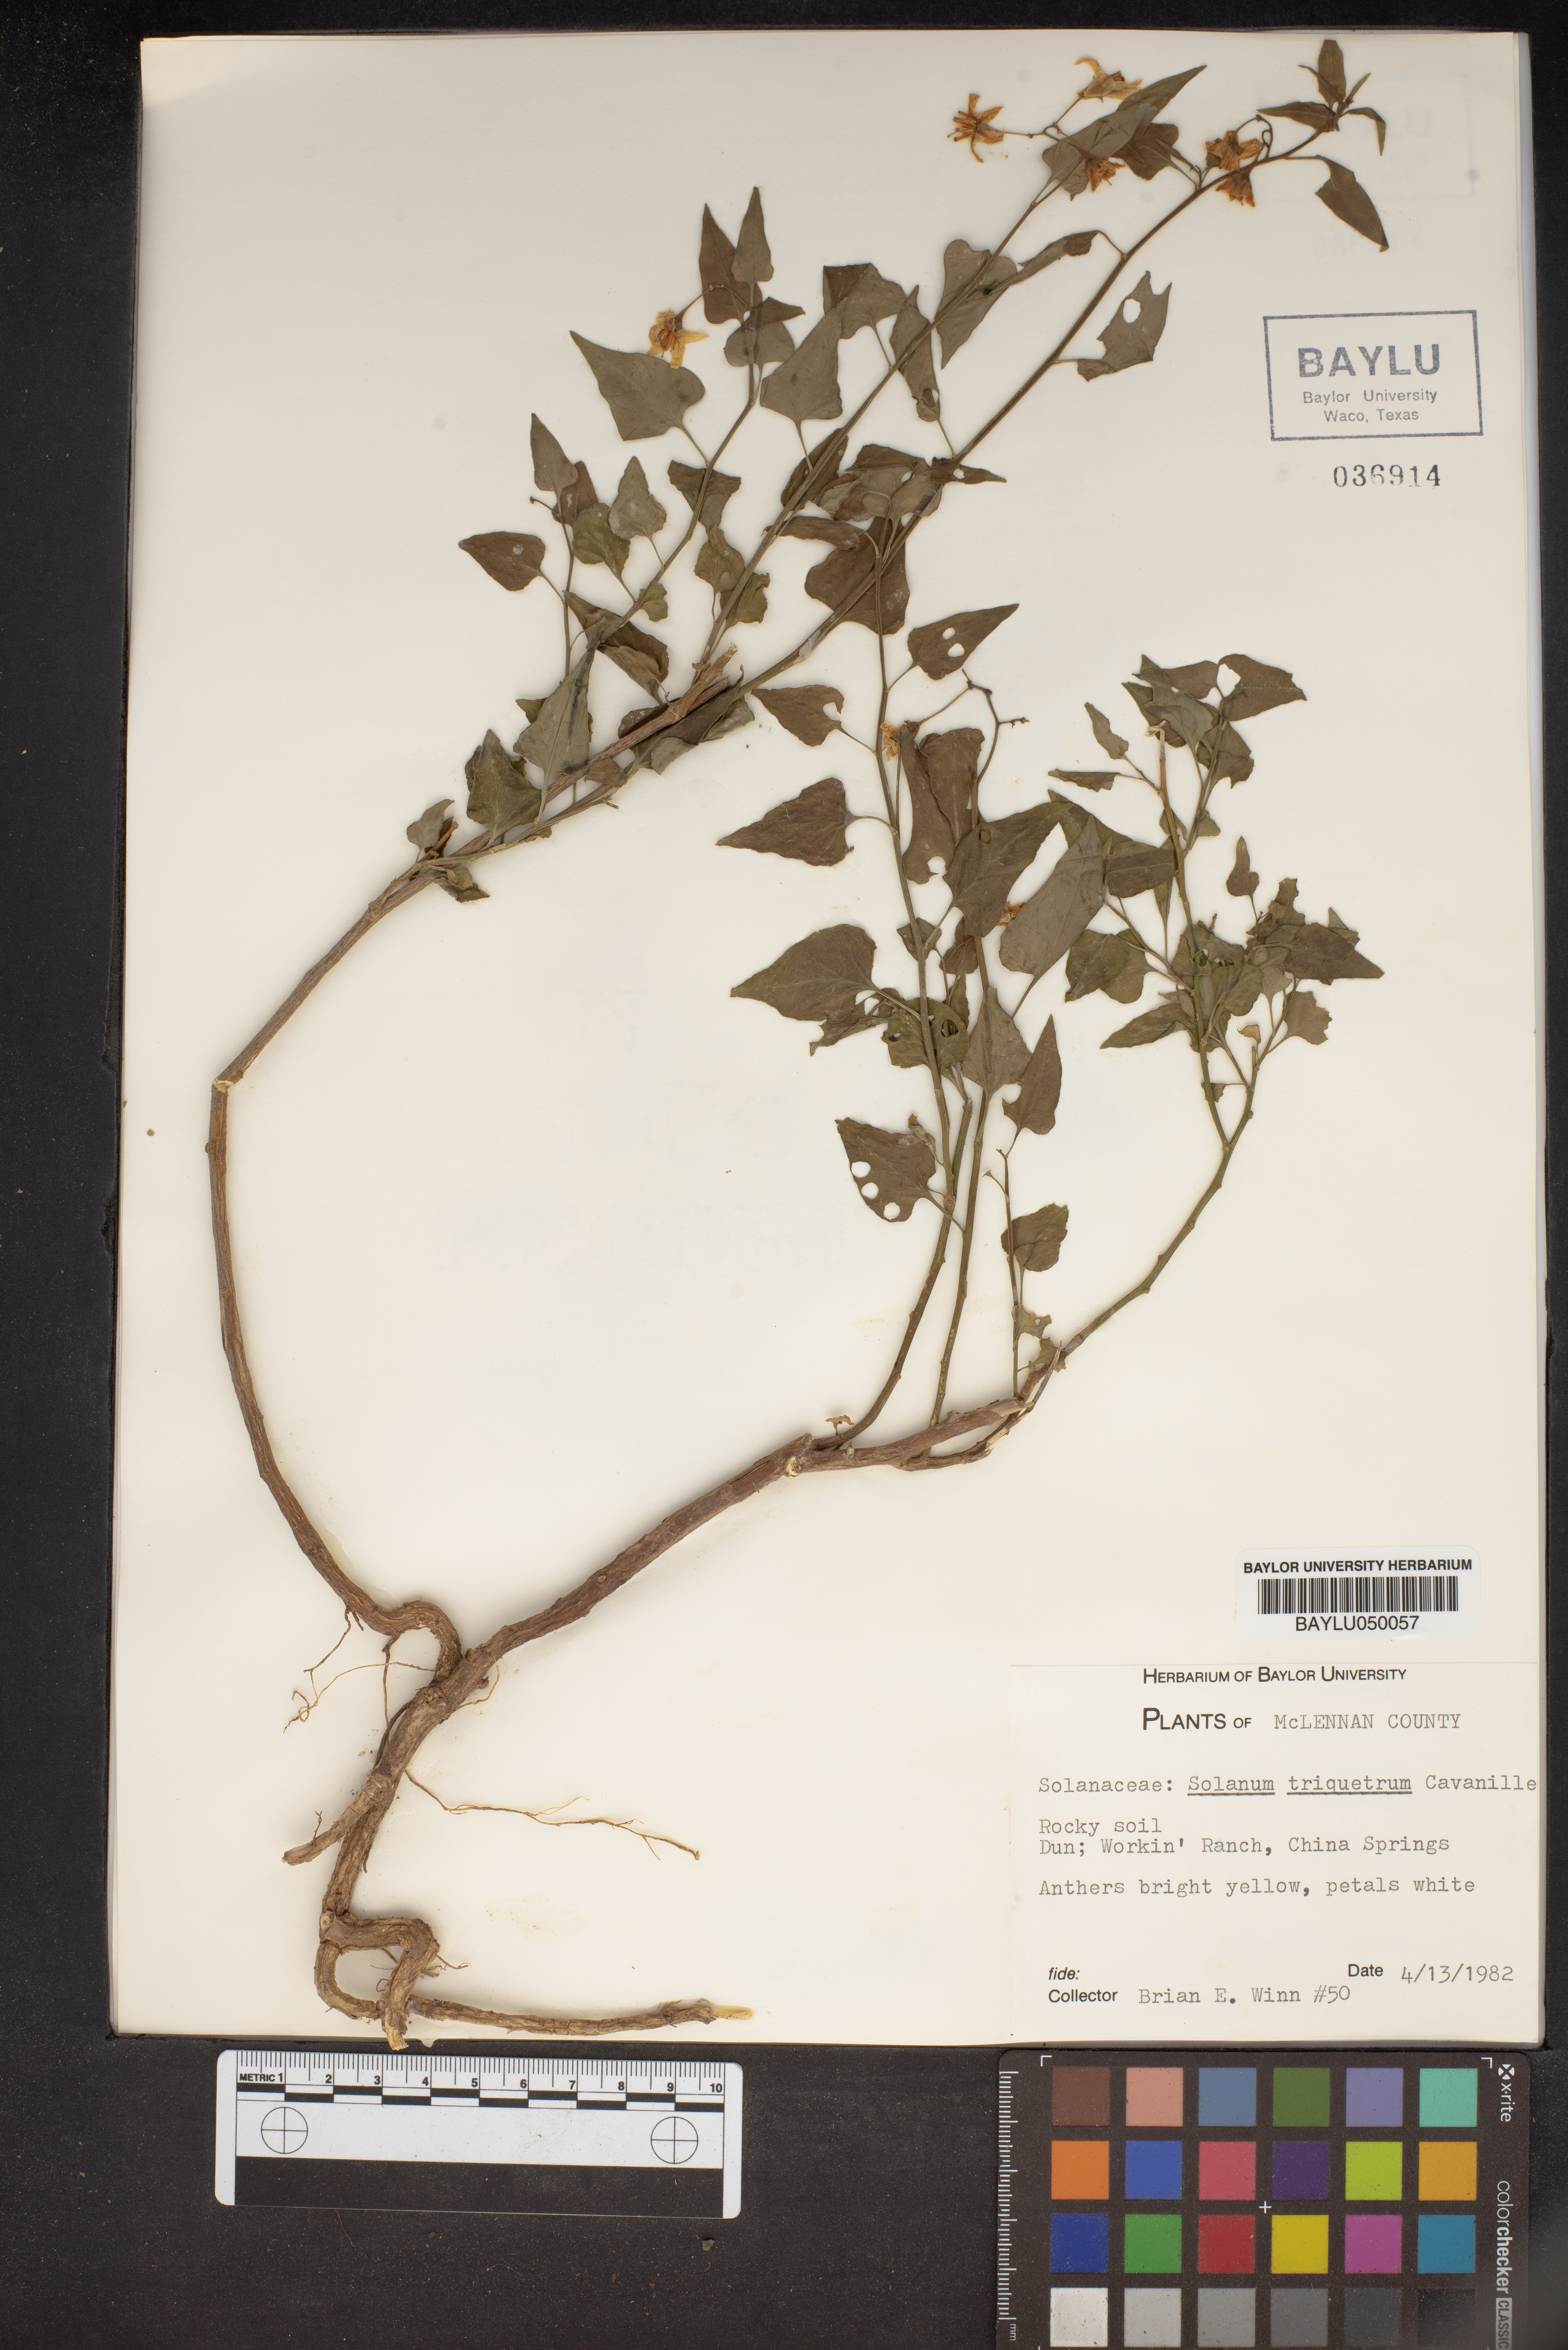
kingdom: Plantae
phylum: Tracheophyta
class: Magnoliopsida
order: Solanales
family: Solanaceae
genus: Solanum
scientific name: Solanum triquetrum
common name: Texas nightshade
